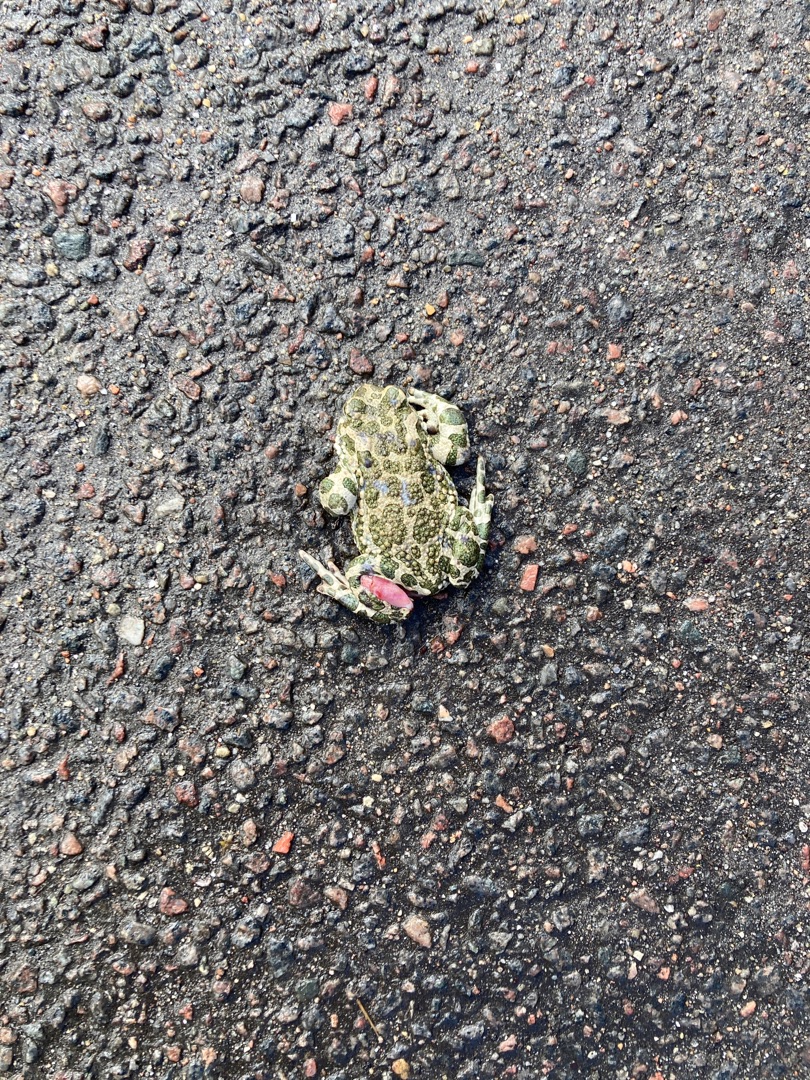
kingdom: Animalia
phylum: Chordata
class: Amphibia
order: Anura
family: Bufonidae
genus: Bufotes
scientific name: Bufotes viridis
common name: Grønbroget tudse
